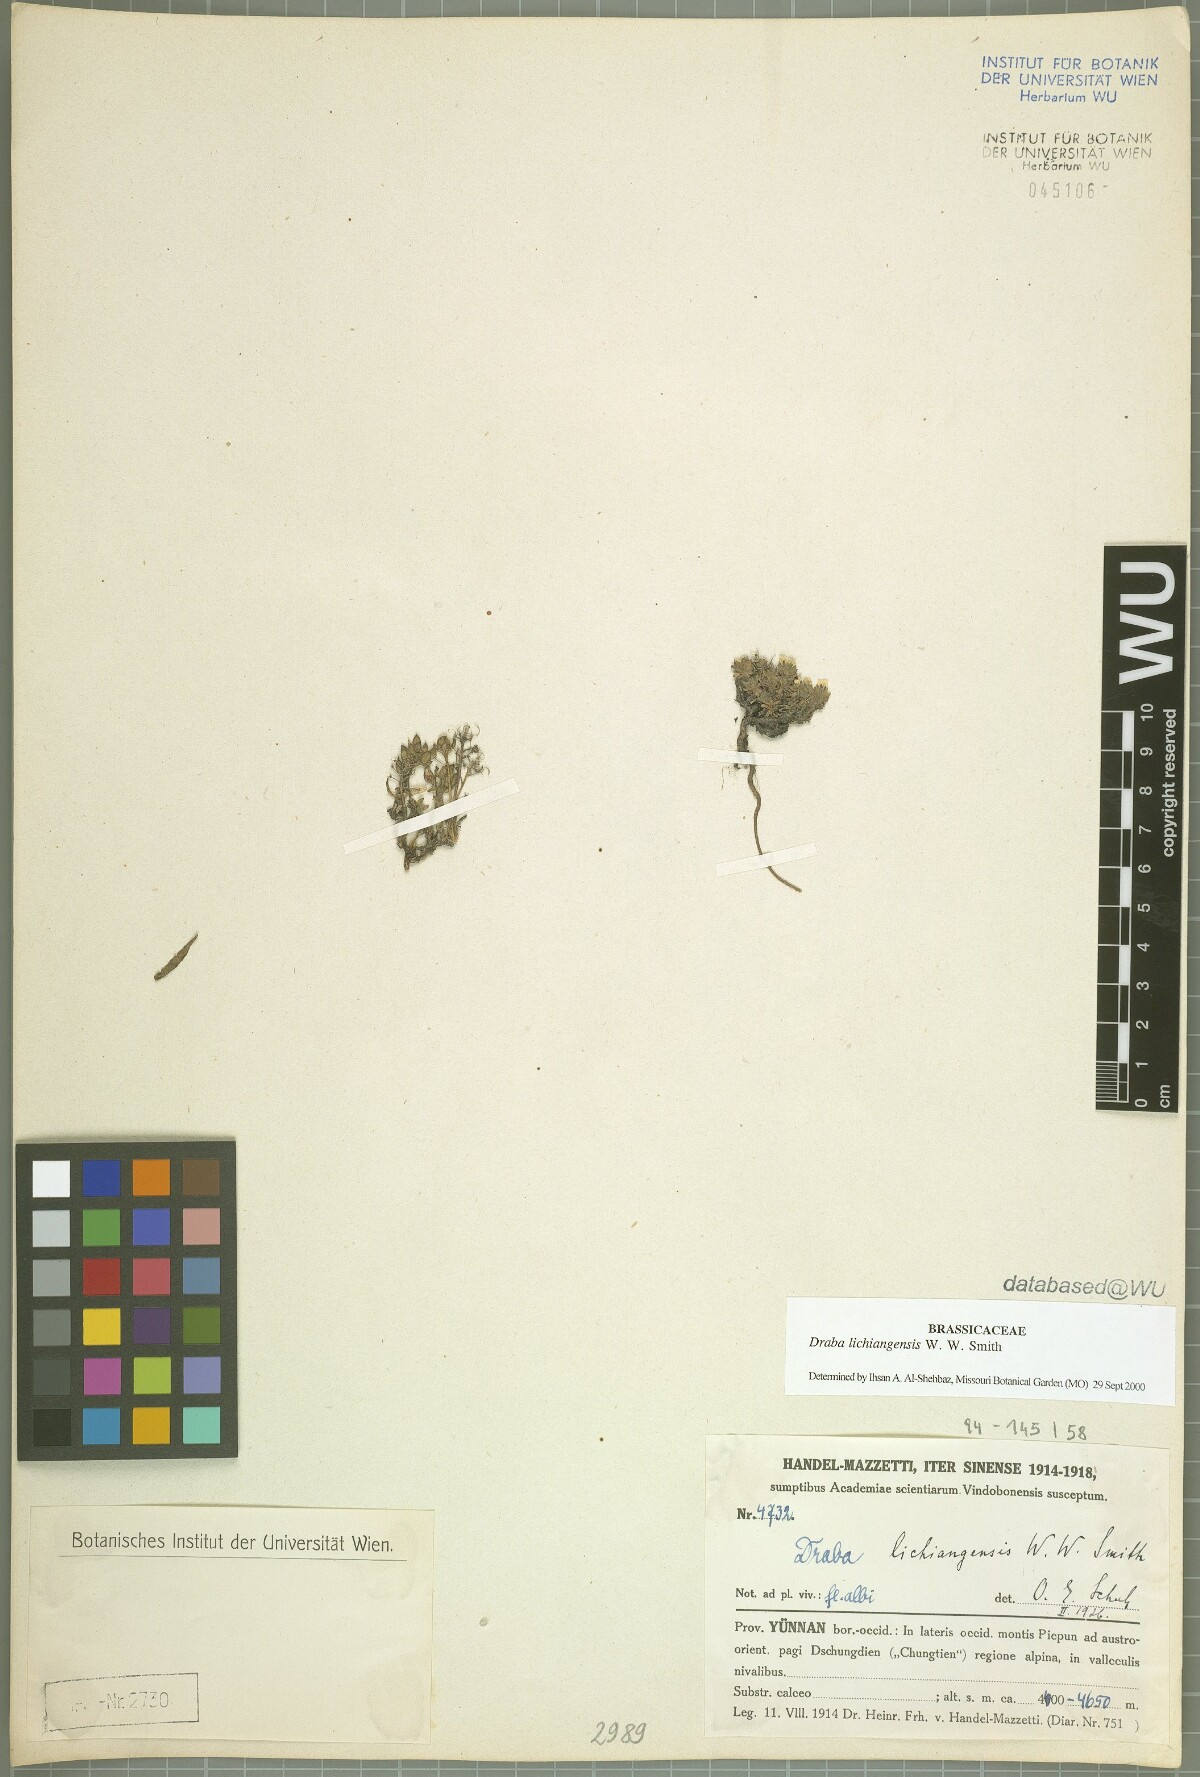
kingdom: Plantae
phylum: Tracheophyta
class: Magnoliopsida
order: Brassicales
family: Brassicaceae
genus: Draba
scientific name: Draba lichiangensis
